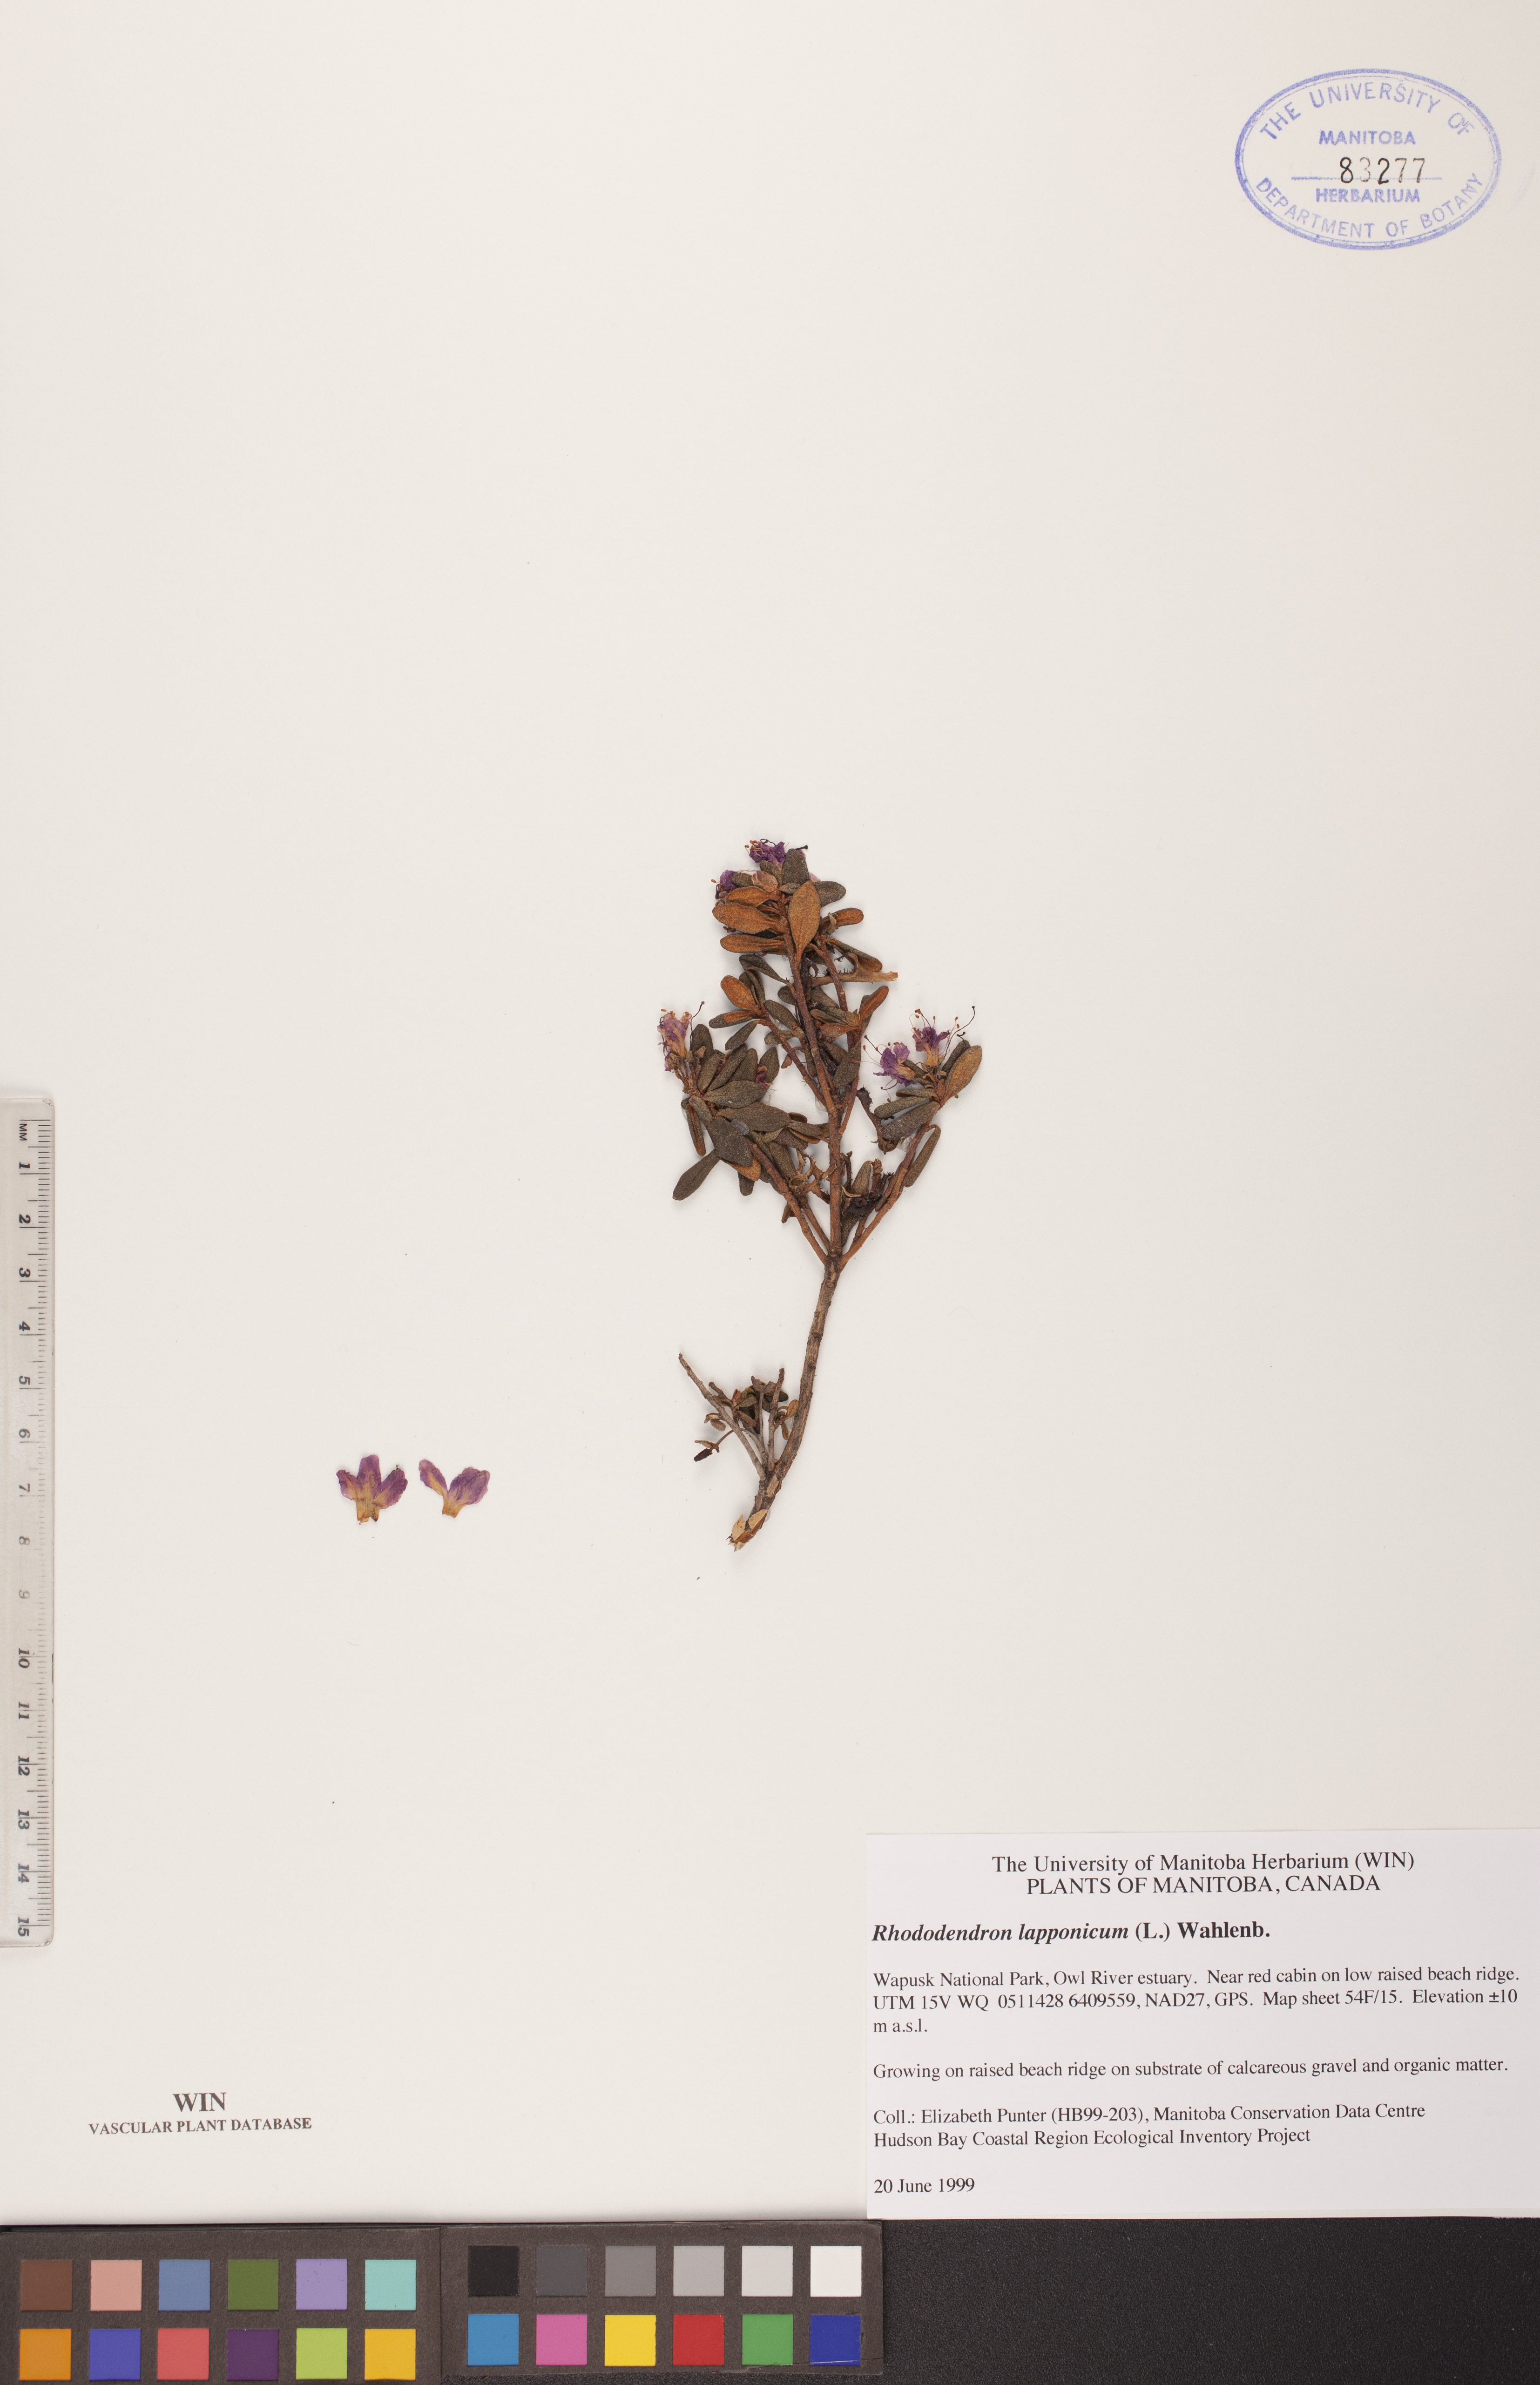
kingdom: Plantae
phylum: Tracheophyta
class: Magnoliopsida
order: Ericales
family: Ericaceae
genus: Rhododendron
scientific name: Rhododendron lapponicum
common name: Lapland rhododendron
